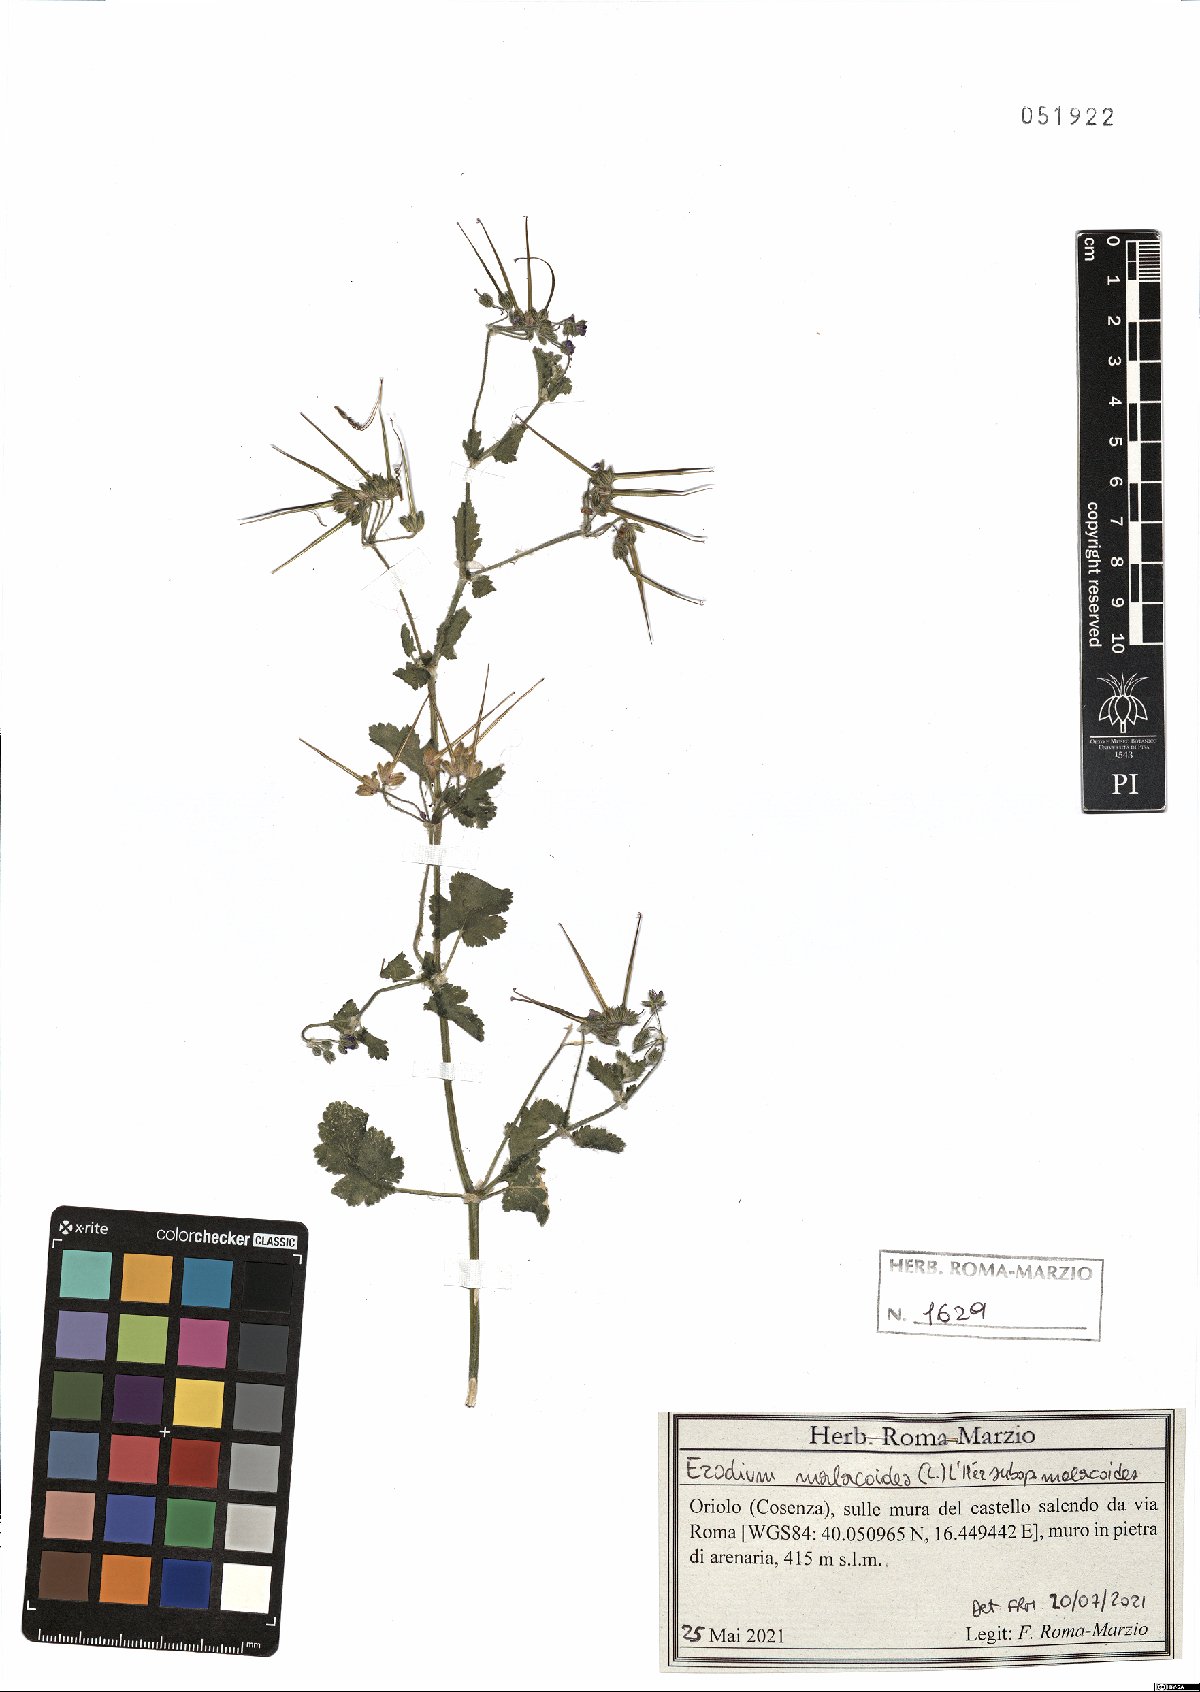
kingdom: Plantae
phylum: Tracheophyta
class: Magnoliopsida
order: Geraniales
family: Geraniaceae
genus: Erodium
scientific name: Erodium malacoides
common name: Soft stork's-bill
